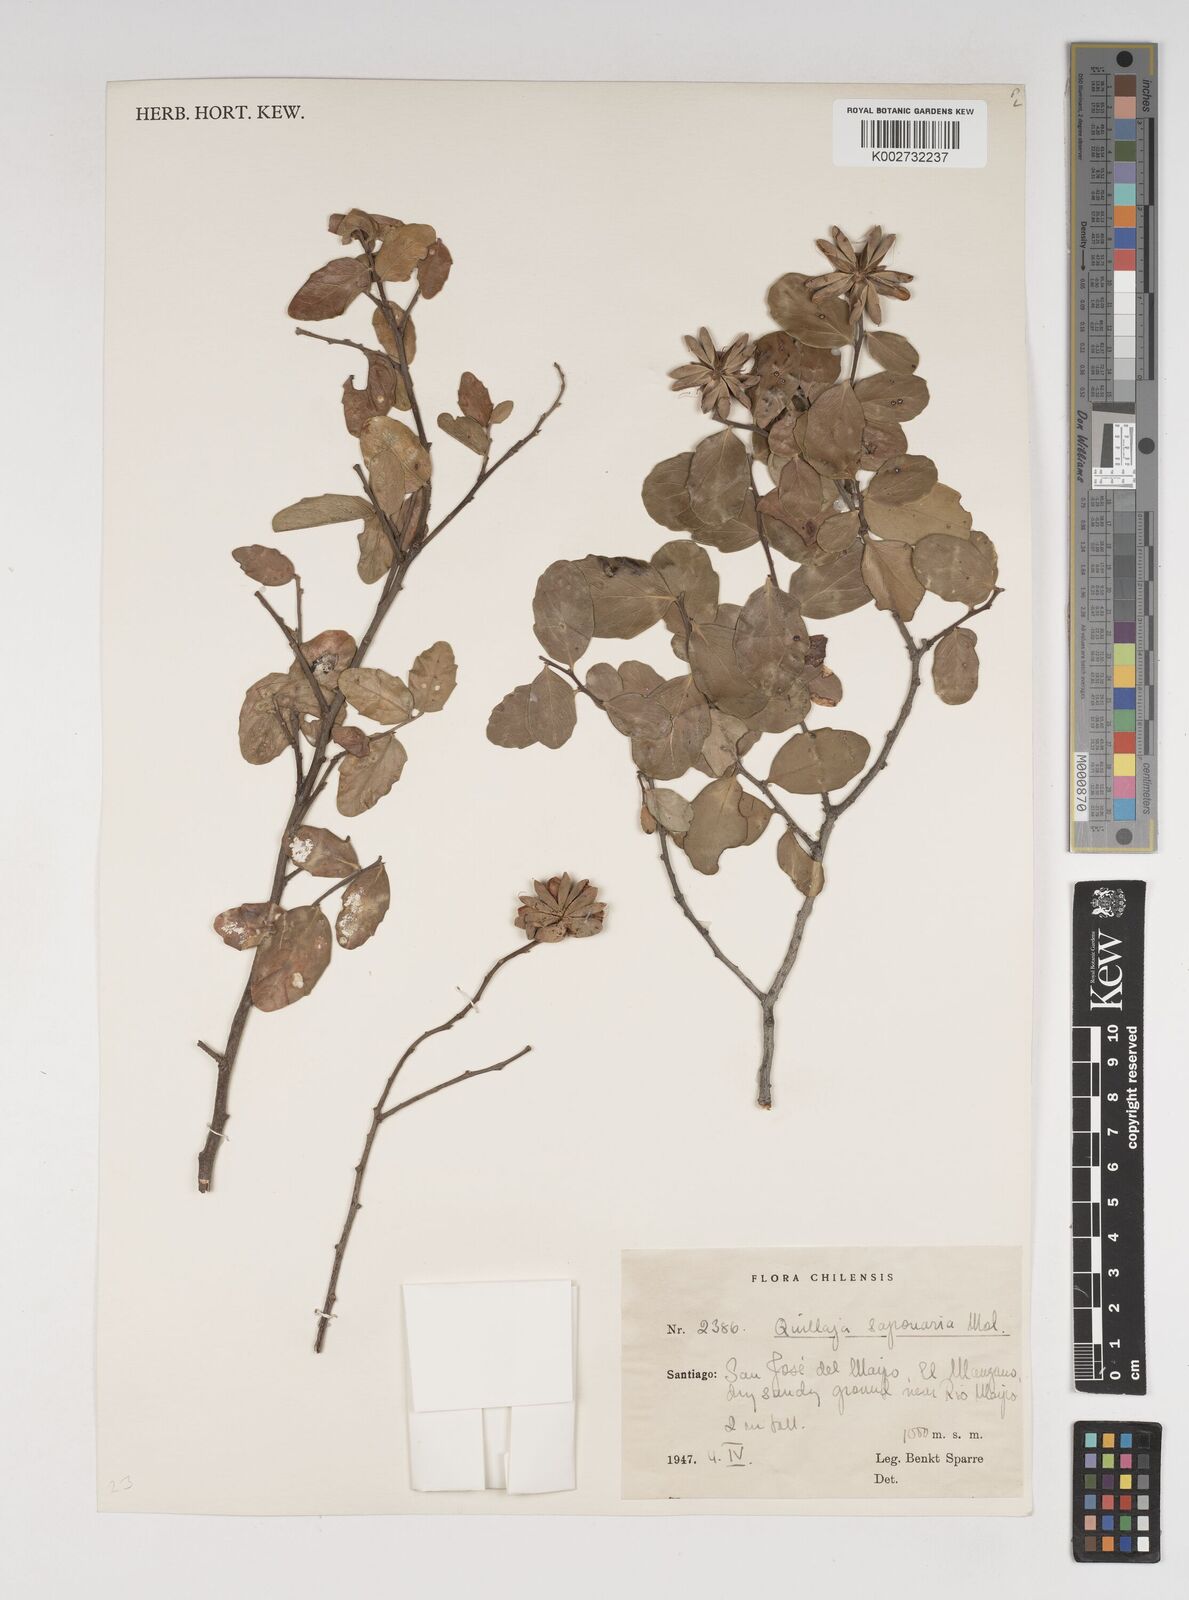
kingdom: Plantae
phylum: Tracheophyta
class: Magnoliopsida
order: Fabales
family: Quillajaceae
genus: Quillaja
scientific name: Quillaja saponaria
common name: Murillo's-bark
